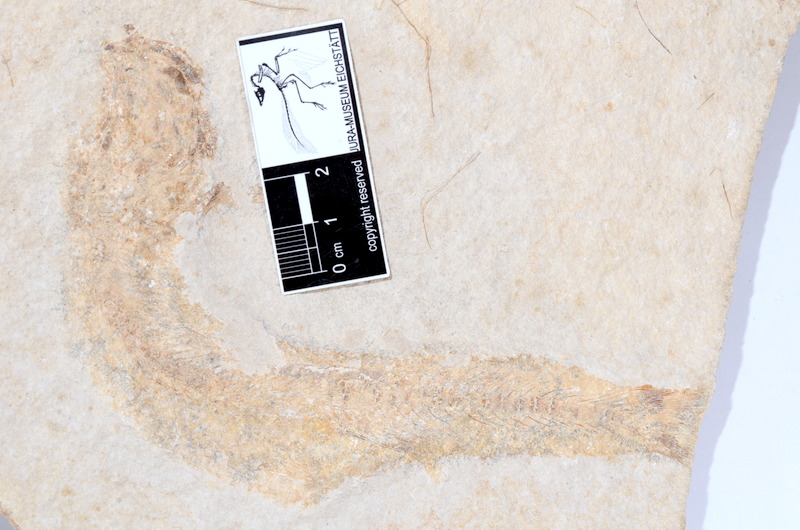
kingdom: Animalia
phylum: Chordata
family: Ascalaboidae
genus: Tharsis
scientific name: Tharsis dubius
